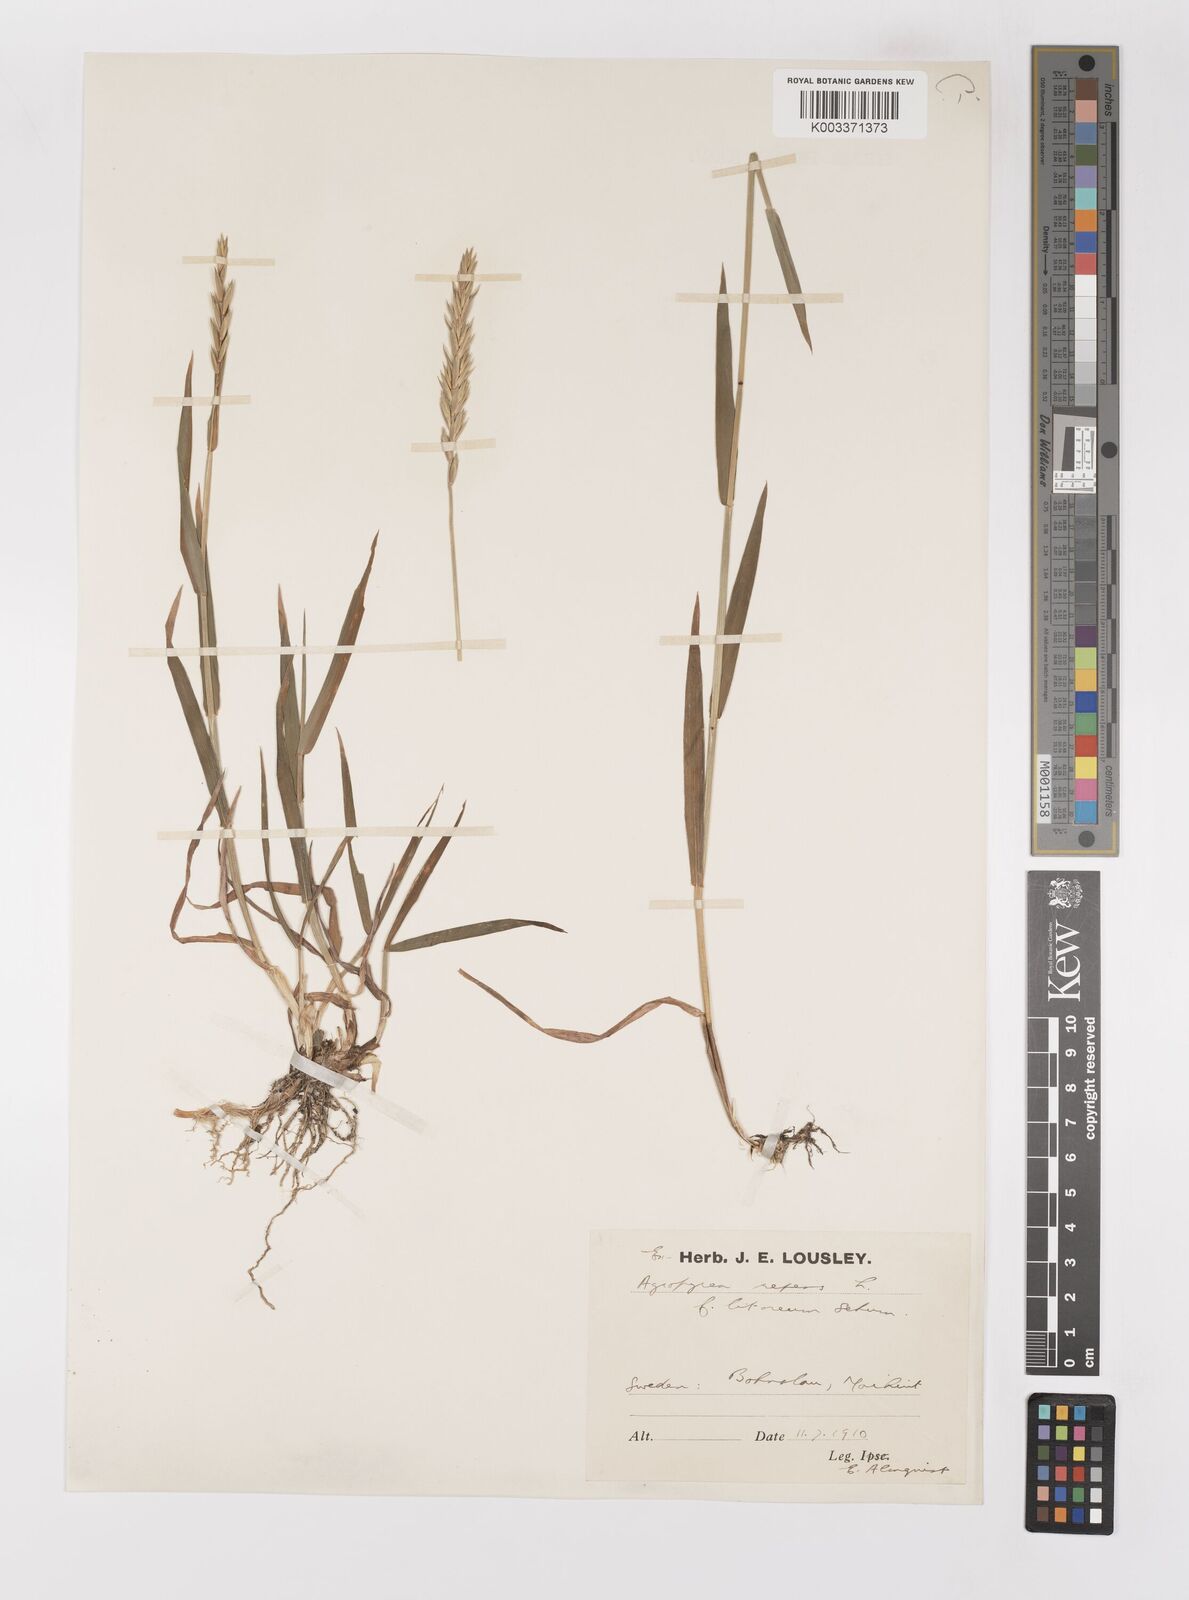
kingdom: Plantae
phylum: Tracheophyta
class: Liliopsida
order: Poales
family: Poaceae
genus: Elymus
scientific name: Elymus repens
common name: Quackgrass
